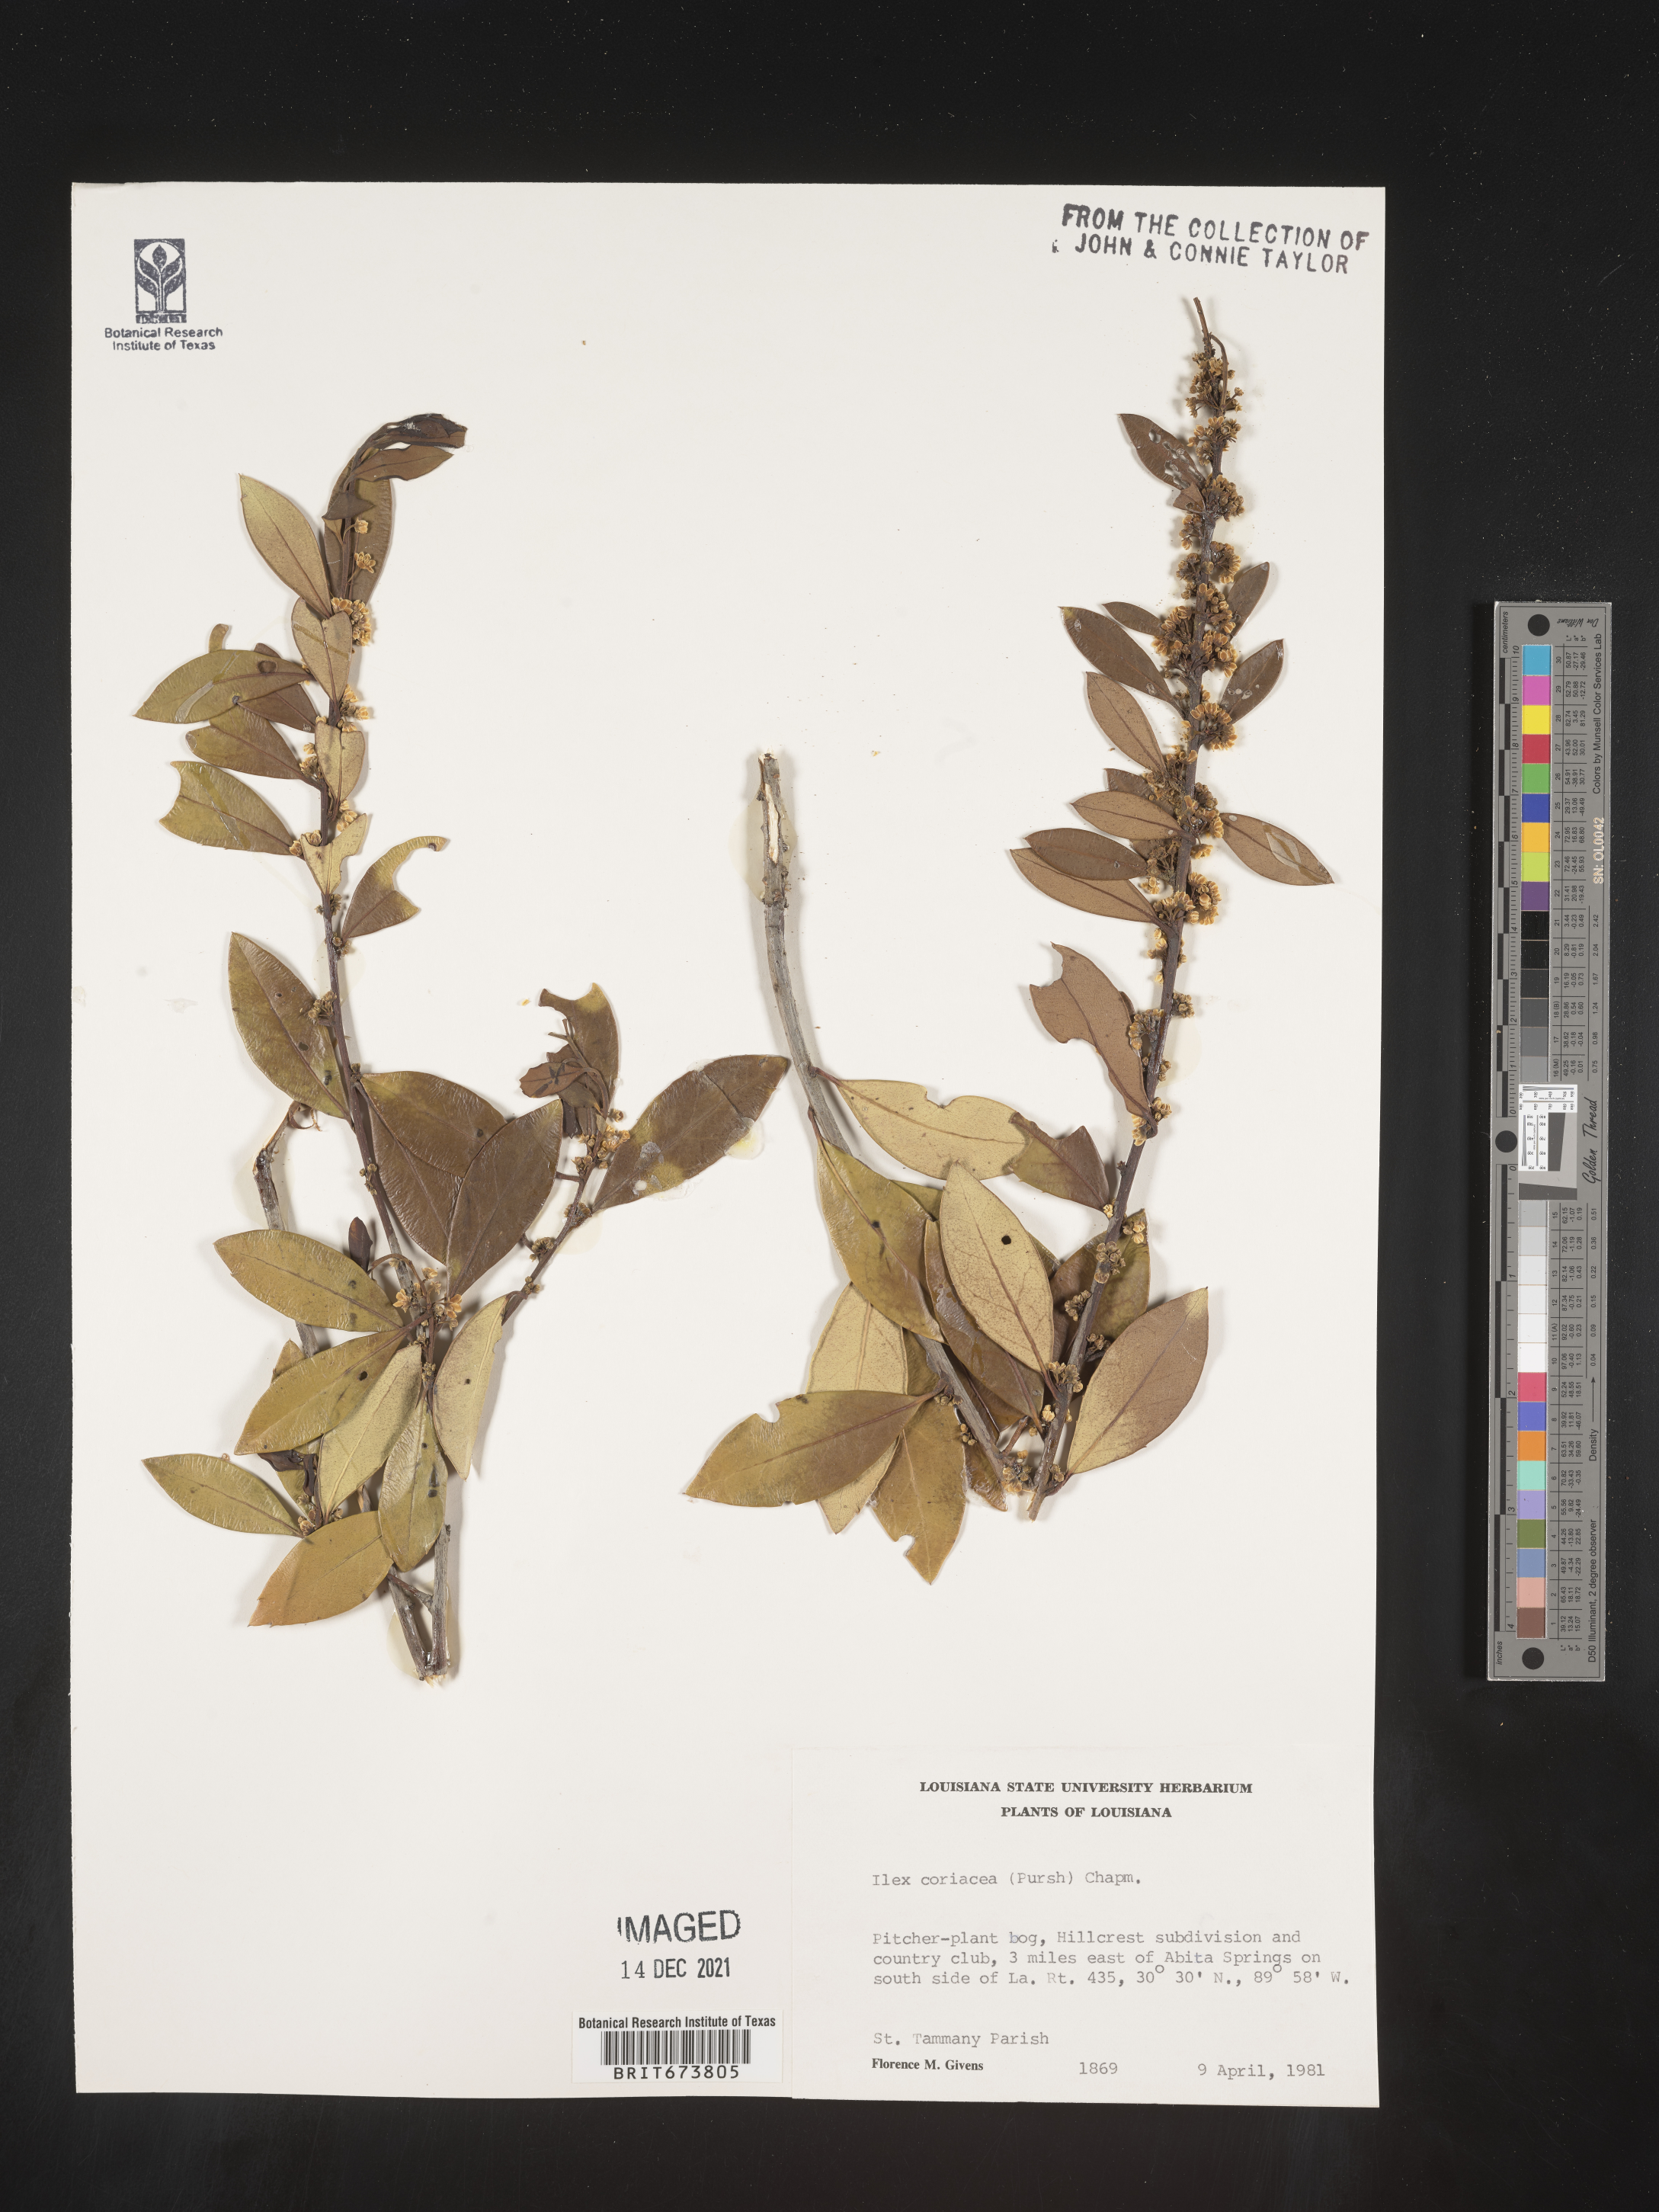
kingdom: Plantae
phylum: Tracheophyta
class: Magnoliopsida
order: Aquifoliales
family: Aquifoliaceae
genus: Ilex
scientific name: Ilex coriacea
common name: Sweet gallberry
